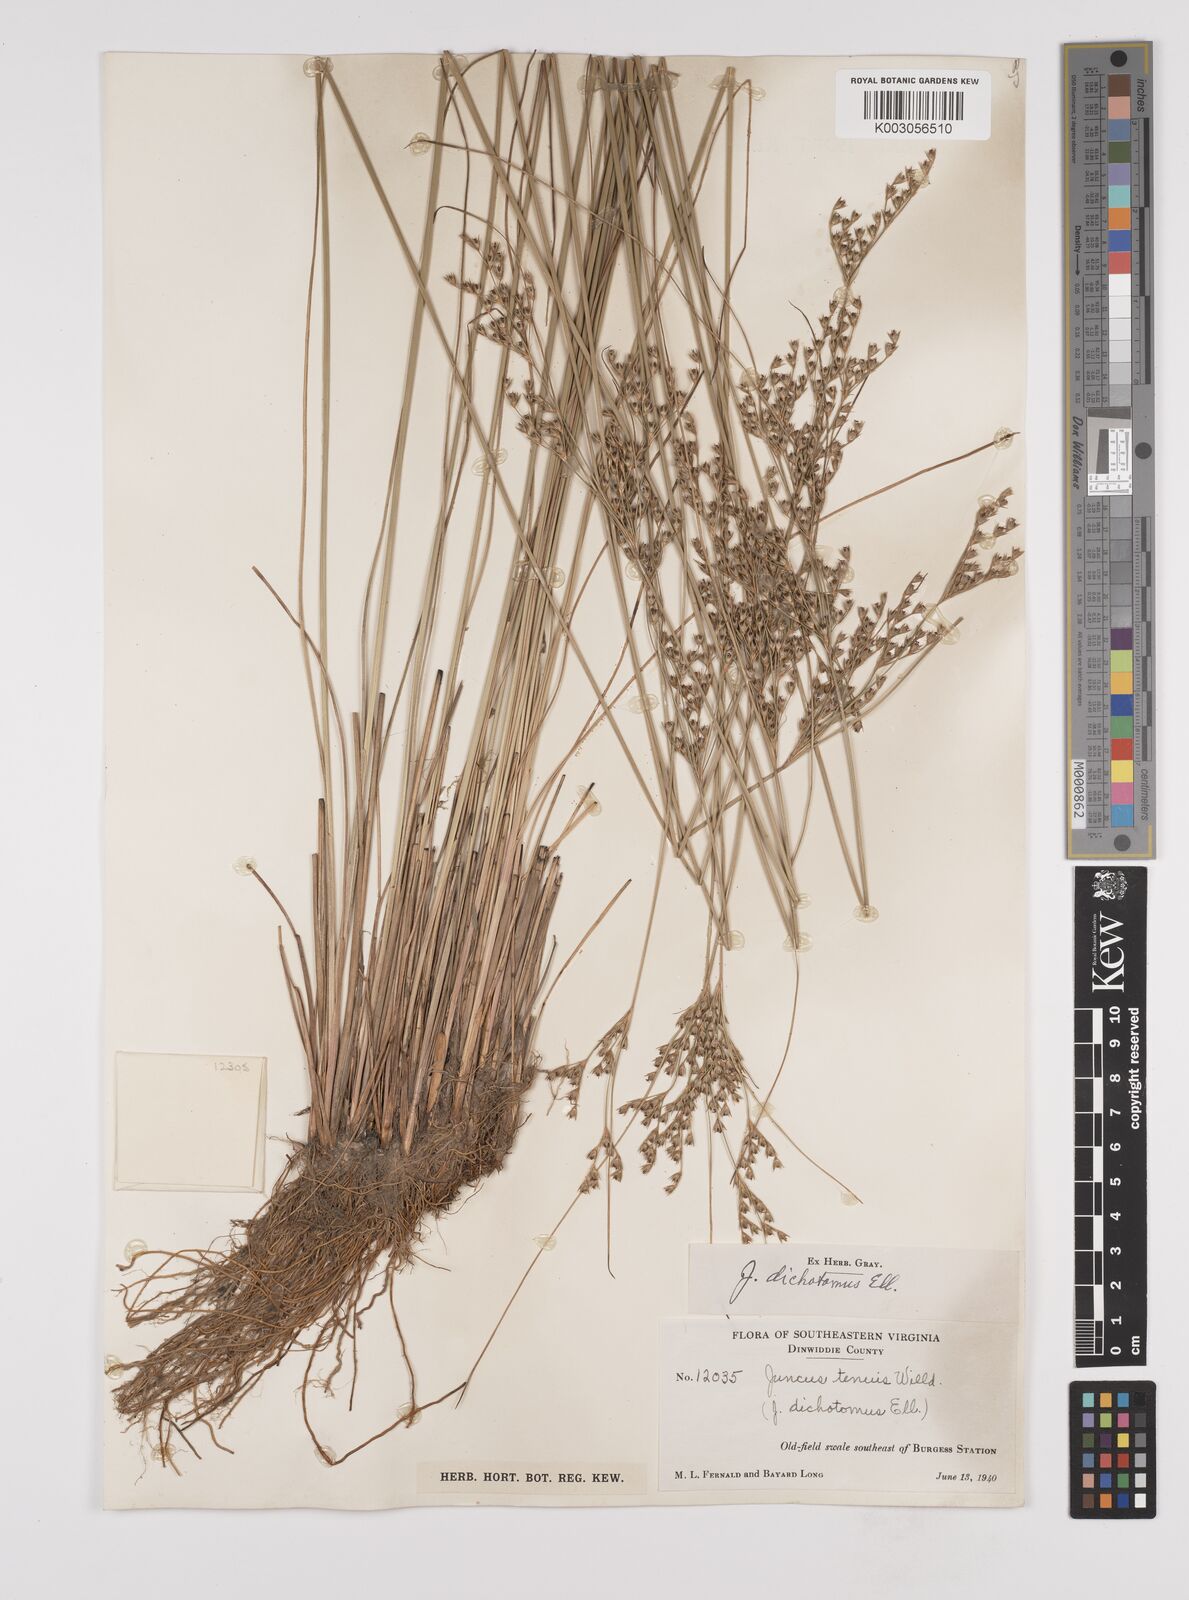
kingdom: Plantae
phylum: Tracheophyta
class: Liliopsida
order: Poales
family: Juncaceae
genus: Juncus
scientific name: Juncus dichotomus
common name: Forked rush
